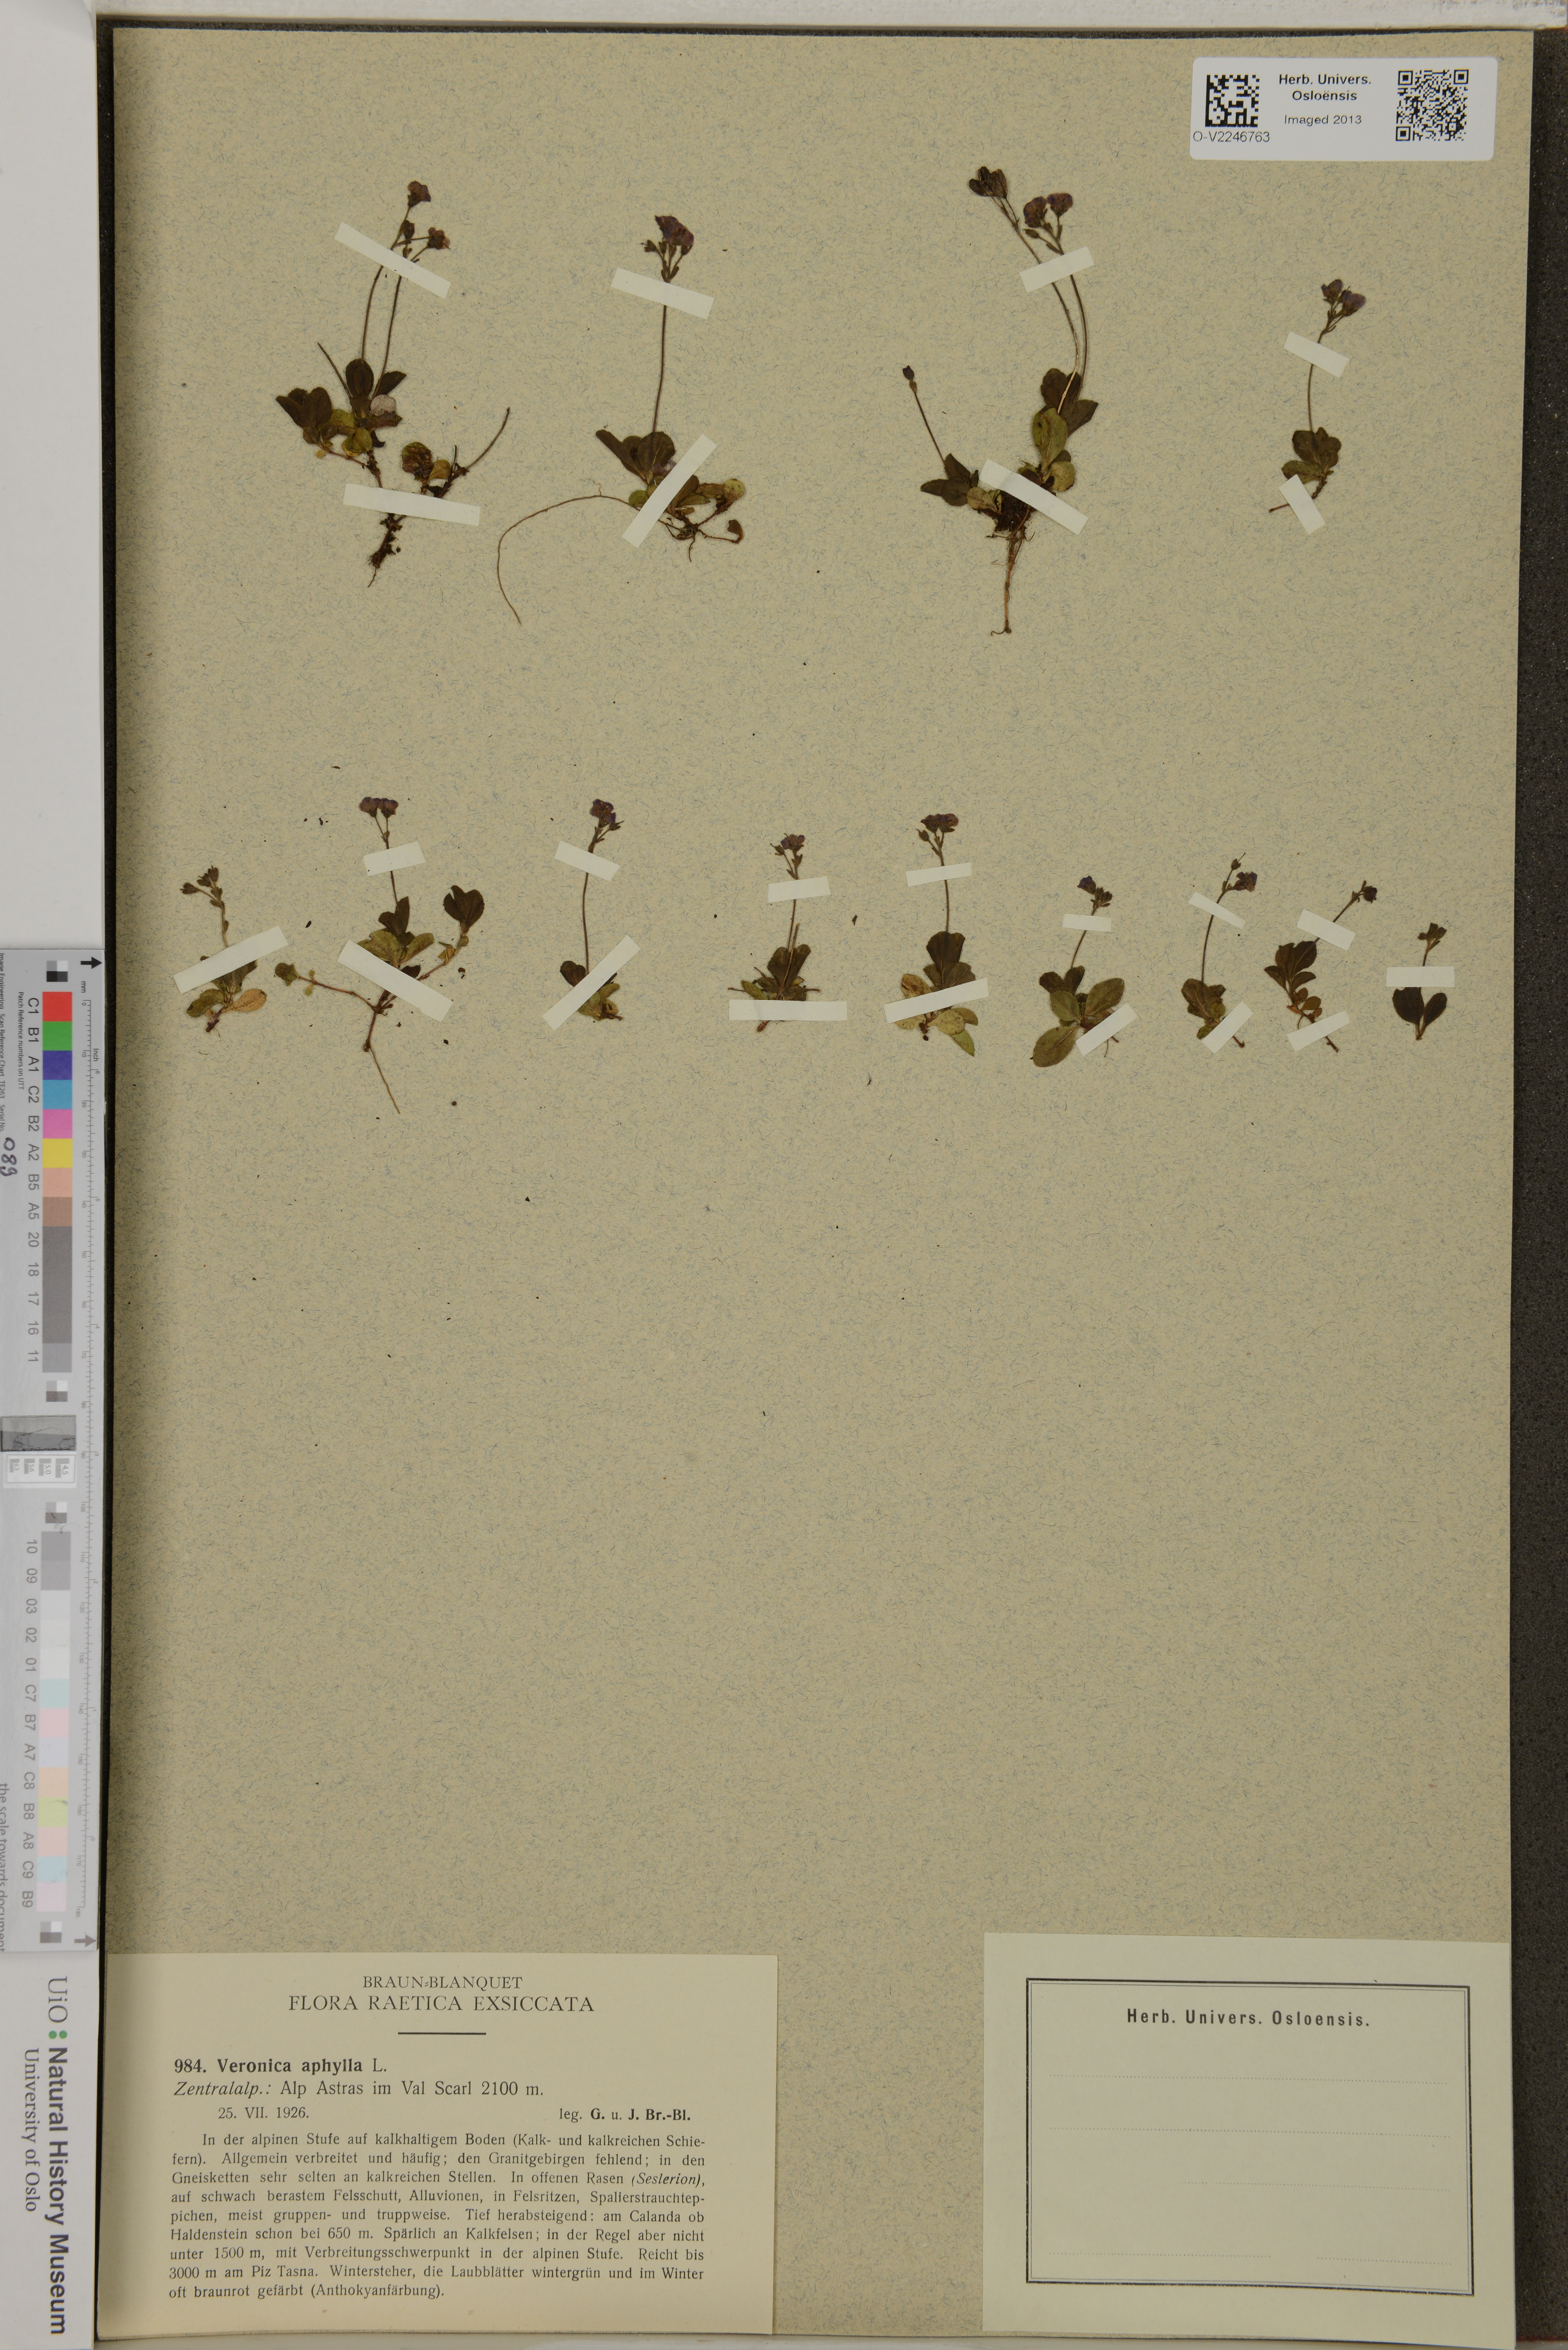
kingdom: Plantae
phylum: Tracheophyta
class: Magnoliopsida
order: Lamiales
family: Plantaginaceae
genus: Veronica
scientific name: Veronica aphylla
